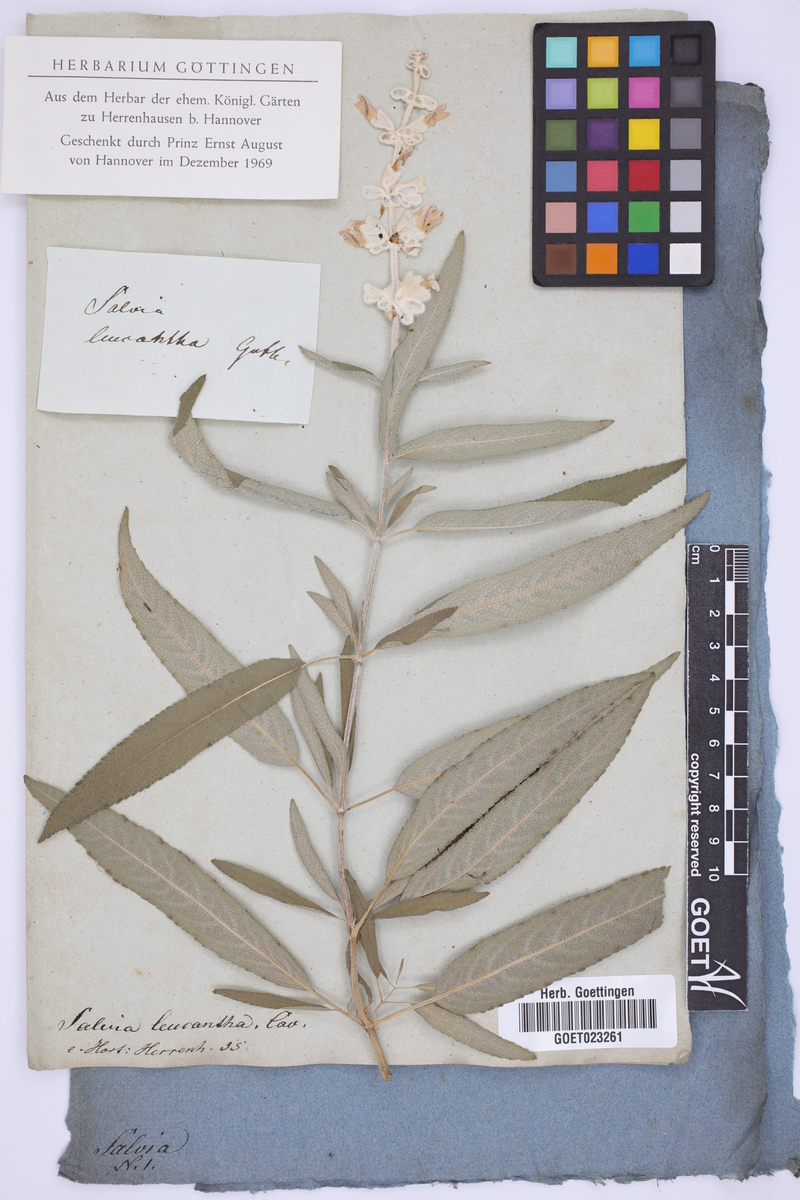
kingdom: Plantae
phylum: Tracheophyta
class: Magnoliopsida
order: Lamiales
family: Lamiaceae
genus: Salvia
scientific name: Salvia leucantha
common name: Mexican bush sage
